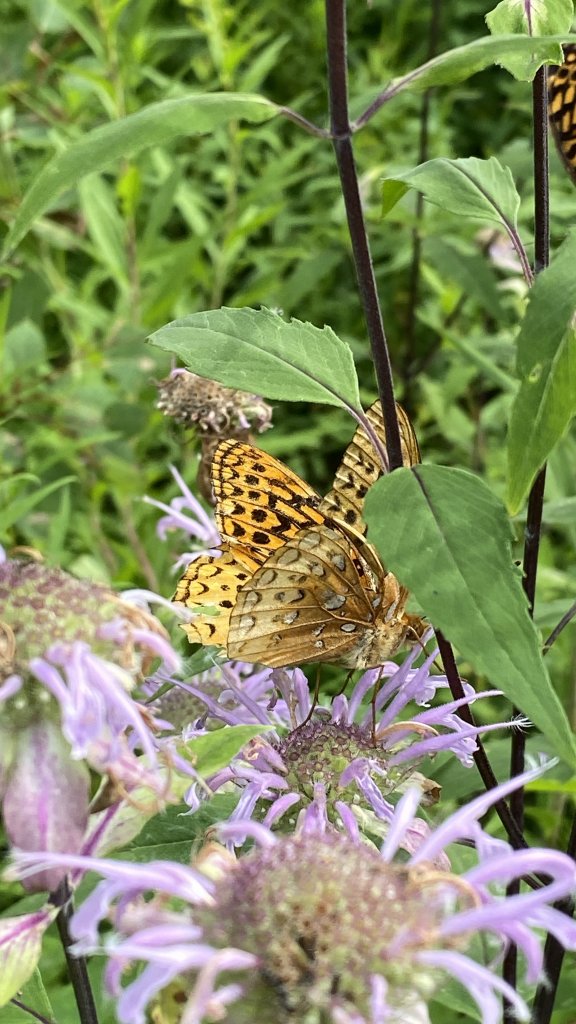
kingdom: Animalia
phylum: Arthropoda
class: Insecta
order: Lepidoptera
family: Nymphalidae
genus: Speyeria
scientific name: Speyeria cybele
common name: Great Spangled Fritillary
